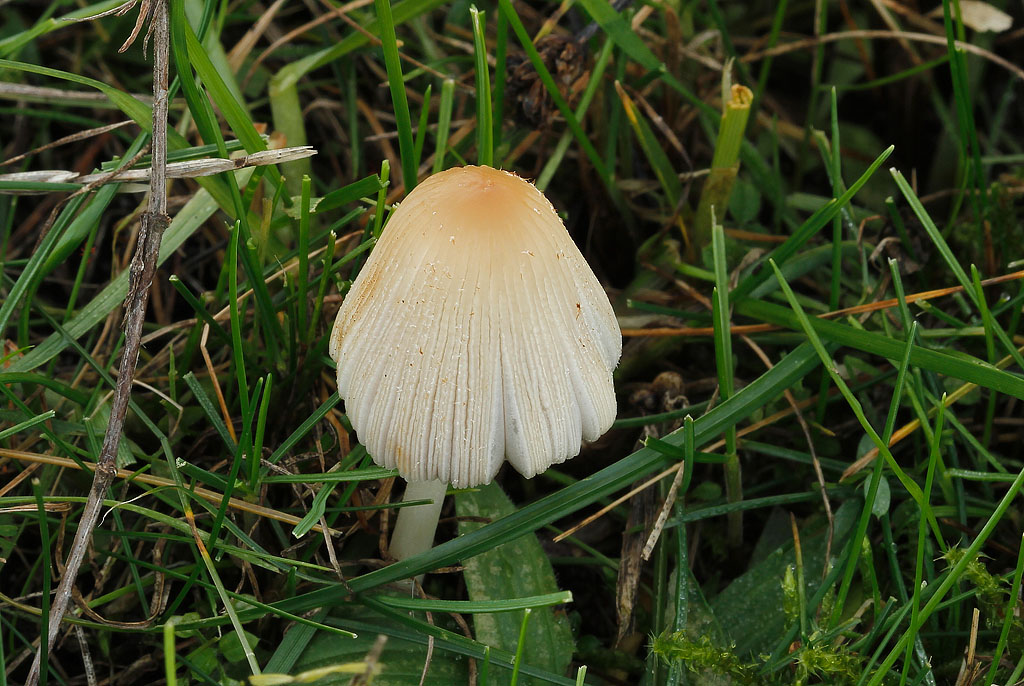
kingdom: Fungi
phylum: Basidiomycota
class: Agaricomycetes
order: Agaricales
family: Psathyrellaceae
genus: Coprinellus
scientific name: Coprinellus xanthothrix
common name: gultrådet blækhat
